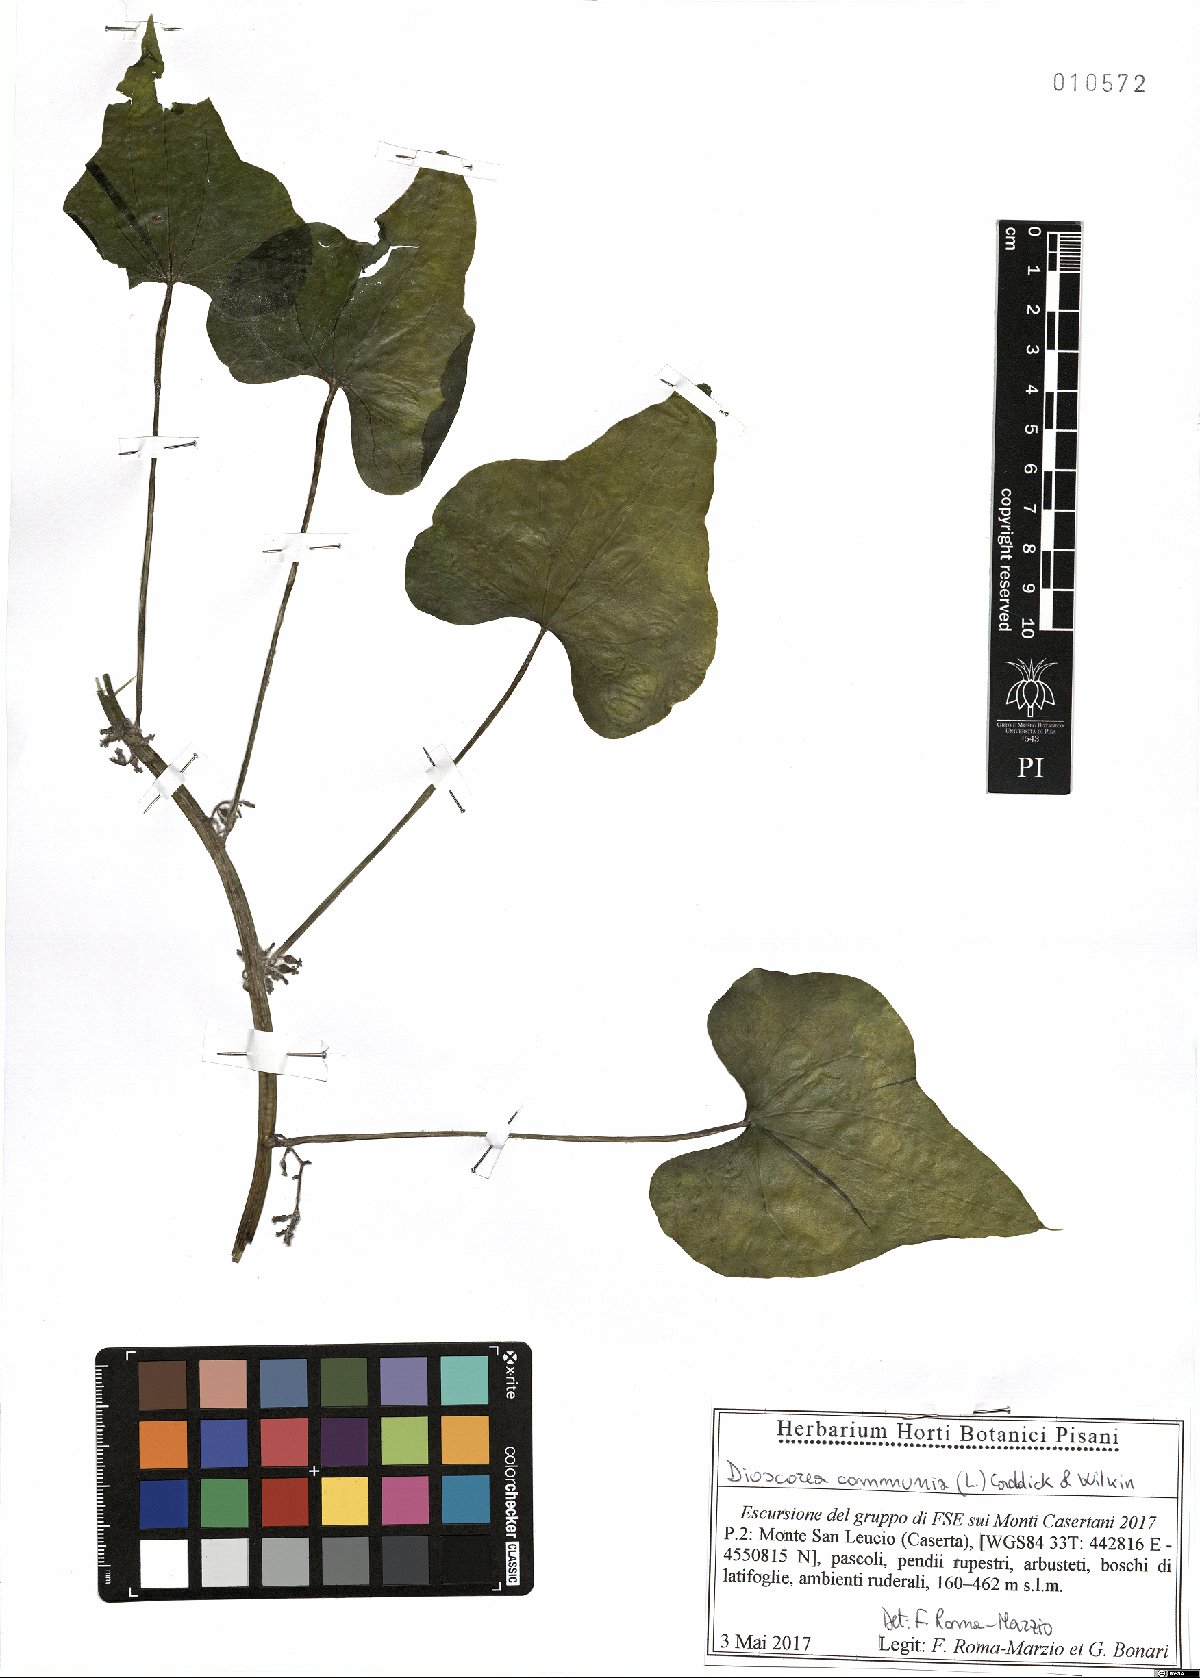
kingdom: Plantae
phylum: Tracheophyta
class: Liliopsida
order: Dioscoreales
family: Dioscoreaceae
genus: Dioscorea
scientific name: Dioscorea communis
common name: Black-bindweed
